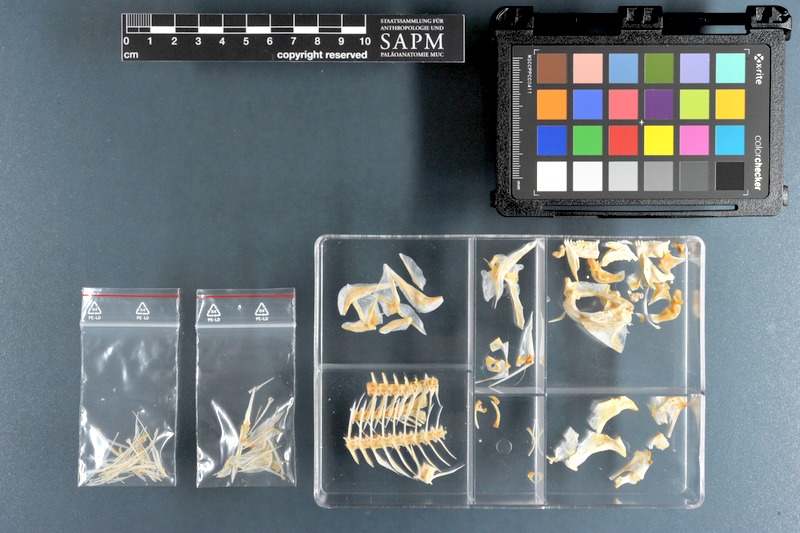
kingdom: Animalia
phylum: Chordata
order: Perciformes
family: Sparidae
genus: Sparidentex
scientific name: Sparidentex hasta
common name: Silver black porgy
